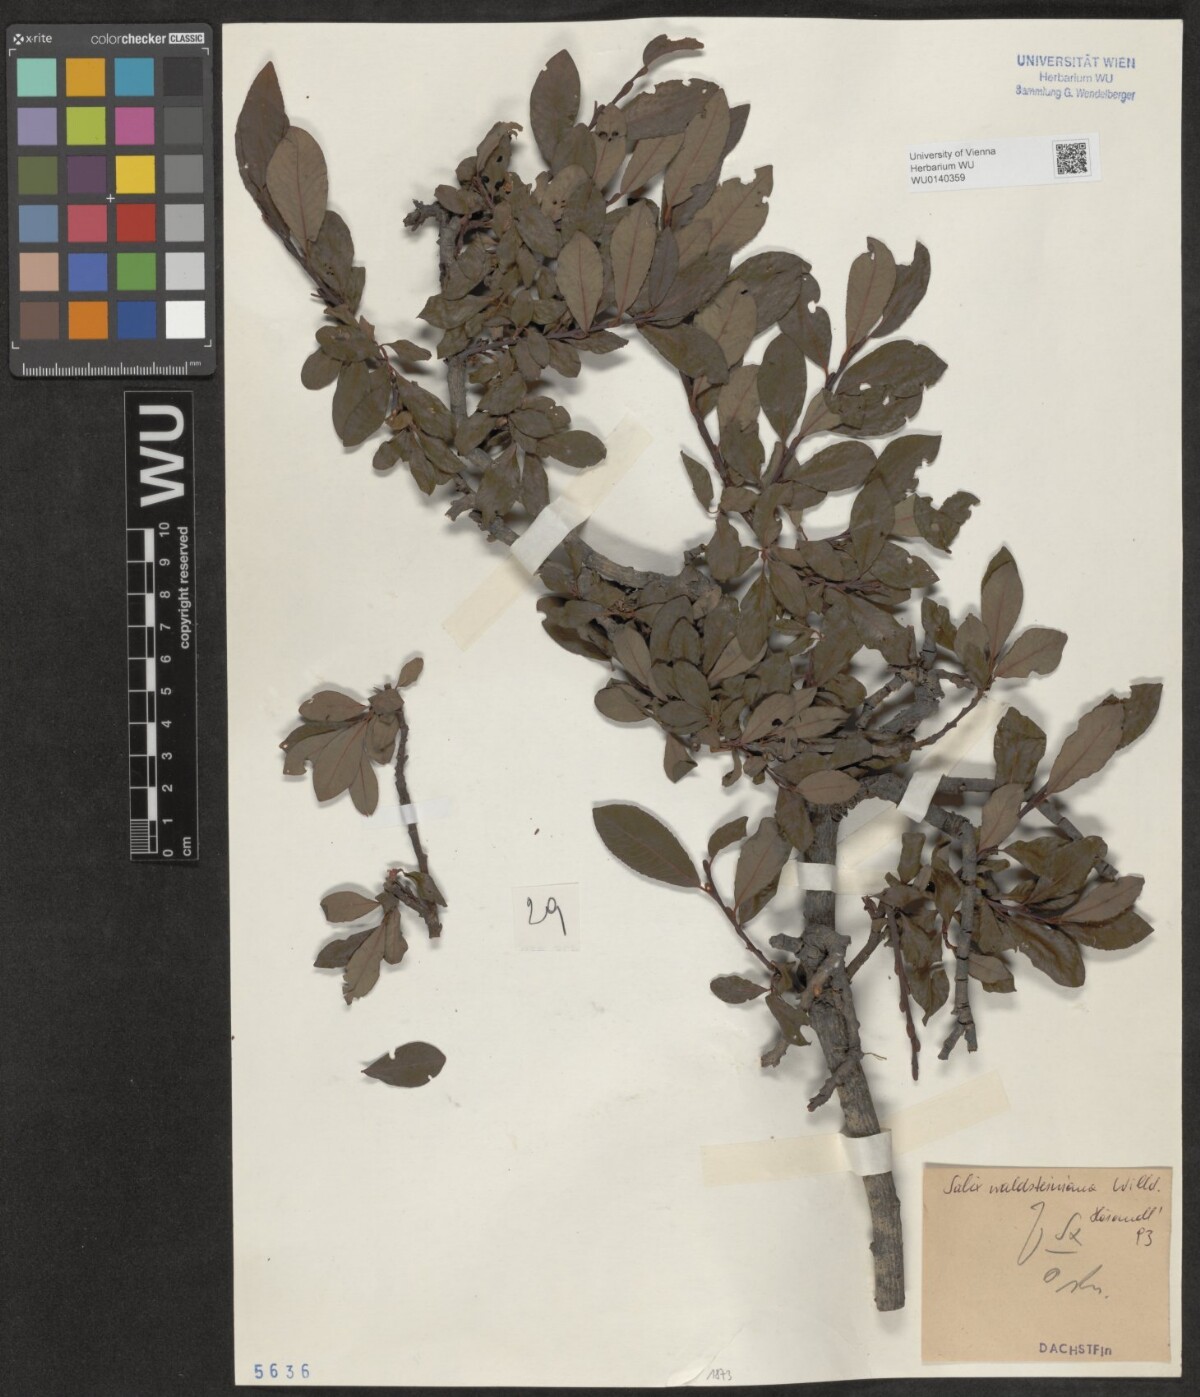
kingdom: Plantae
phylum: Tracheophyta
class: Magnoliopsida
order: Malpighiales
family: Salicaceae
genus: Salix
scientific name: Salix waldsteiniana
